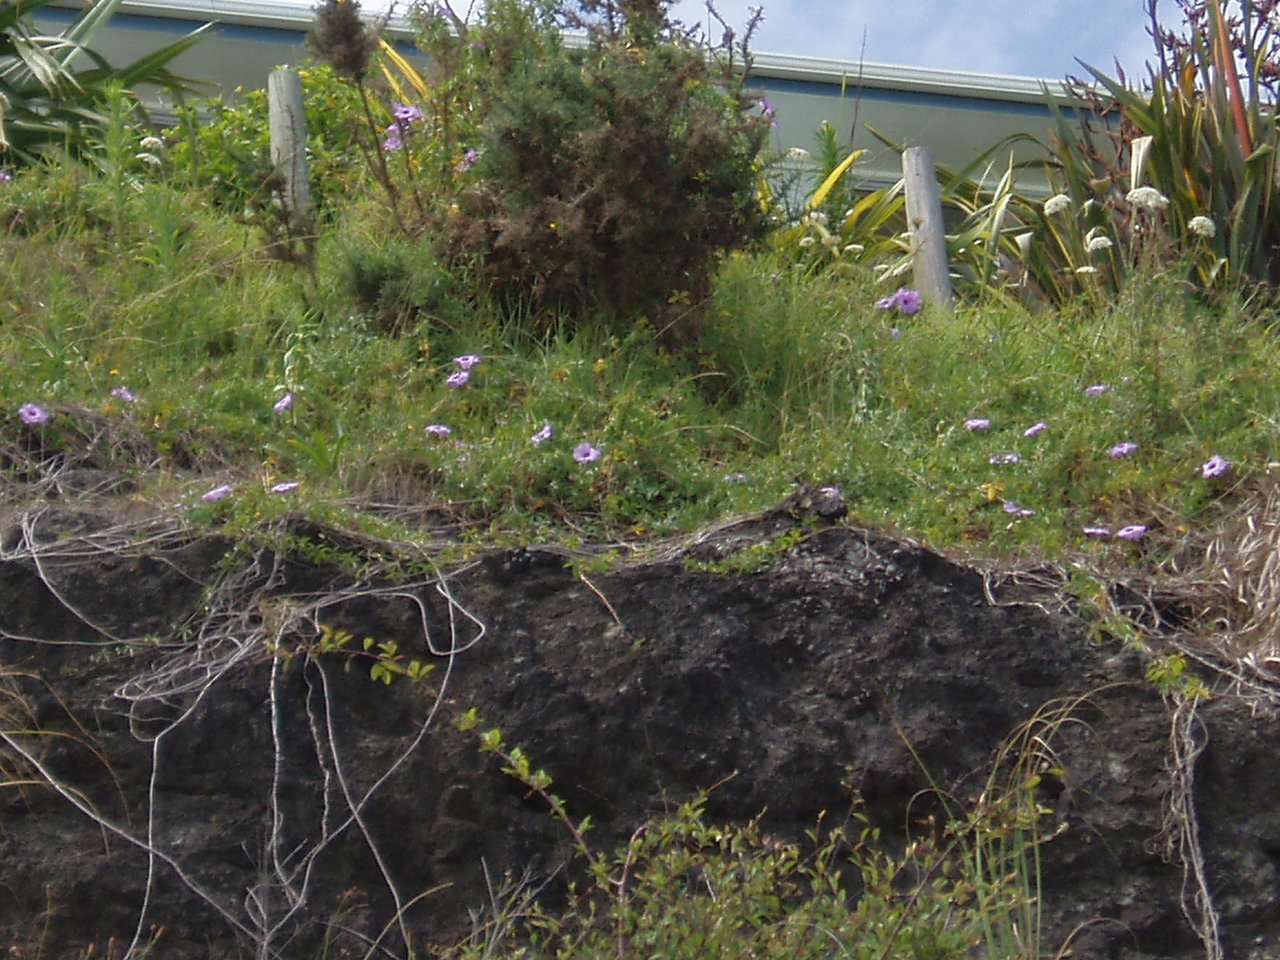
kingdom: Plantae
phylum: Tracheophyta
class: Magnoliopsida
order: Solanales
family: Convolvulaceae
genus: Ipomoea
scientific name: Ipomoea cairica
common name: Mile a minute vine
